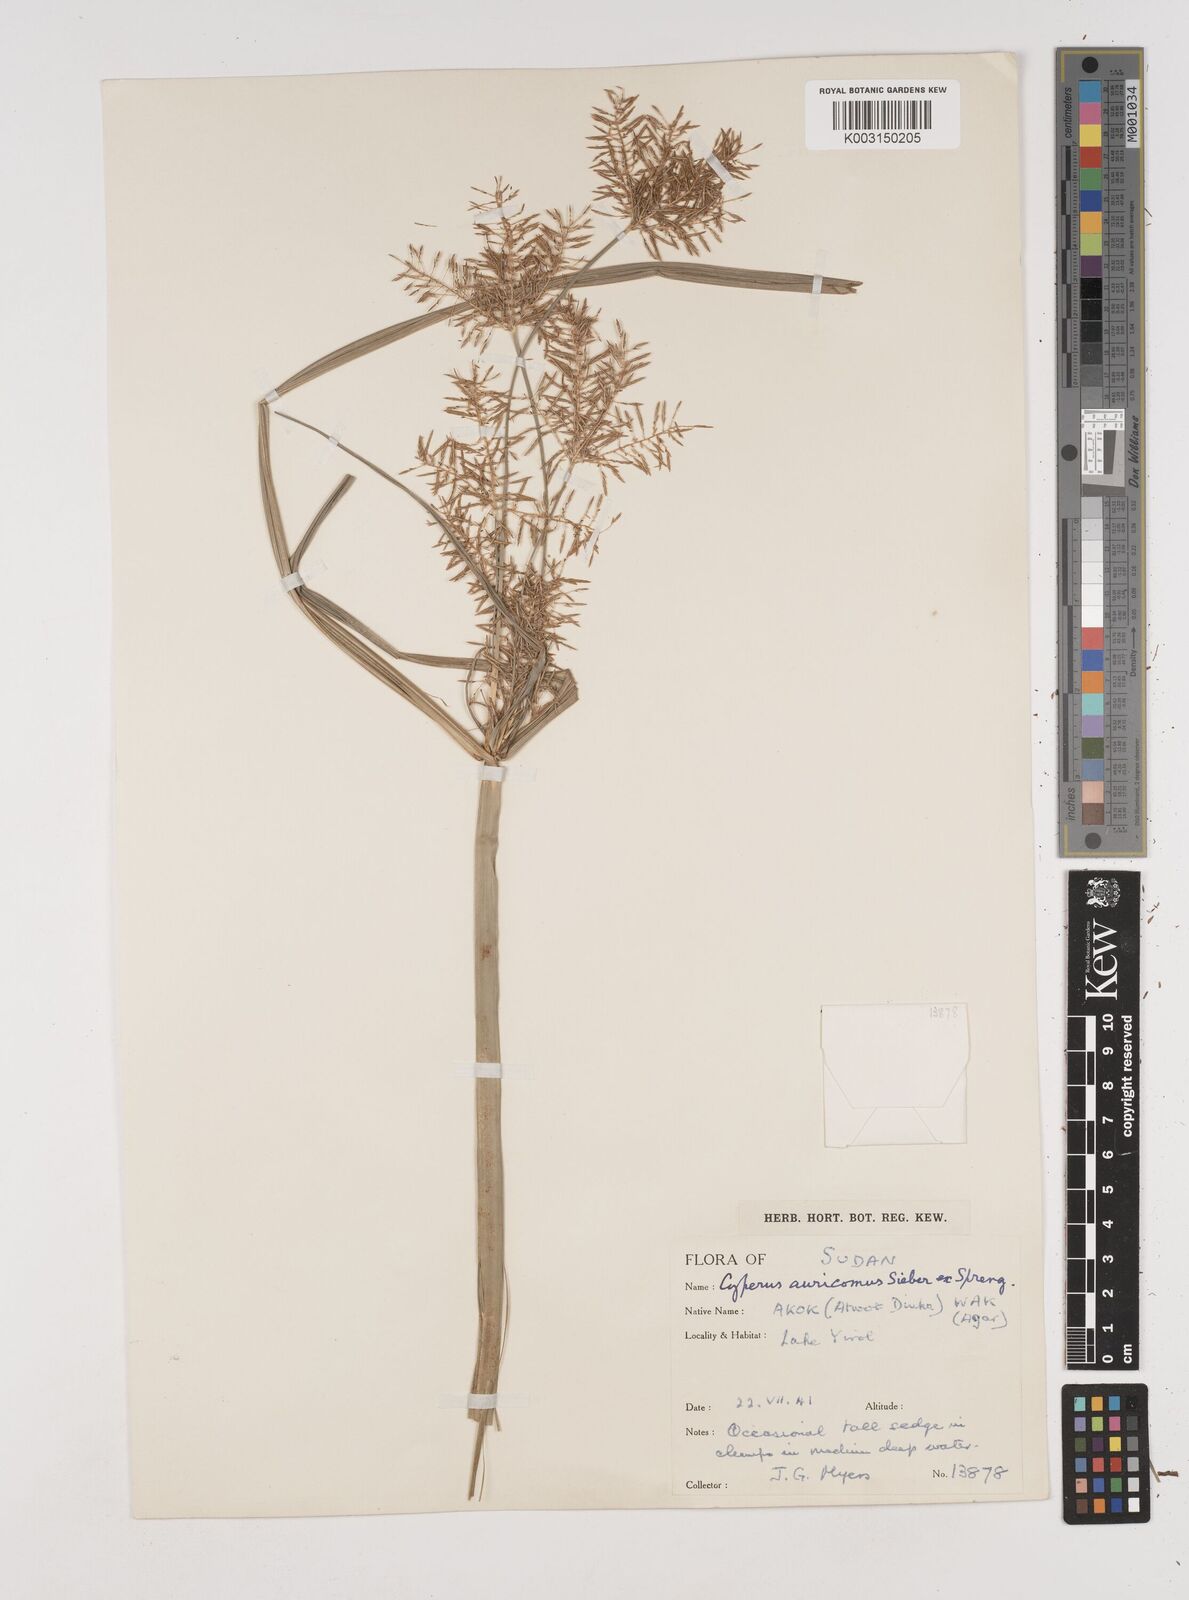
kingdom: Plantae
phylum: Tracheophyta
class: Liliopsida
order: Poales
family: Cyperaceae
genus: Cyperus
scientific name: Cyperus digitatus
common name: Finger flatsedge
